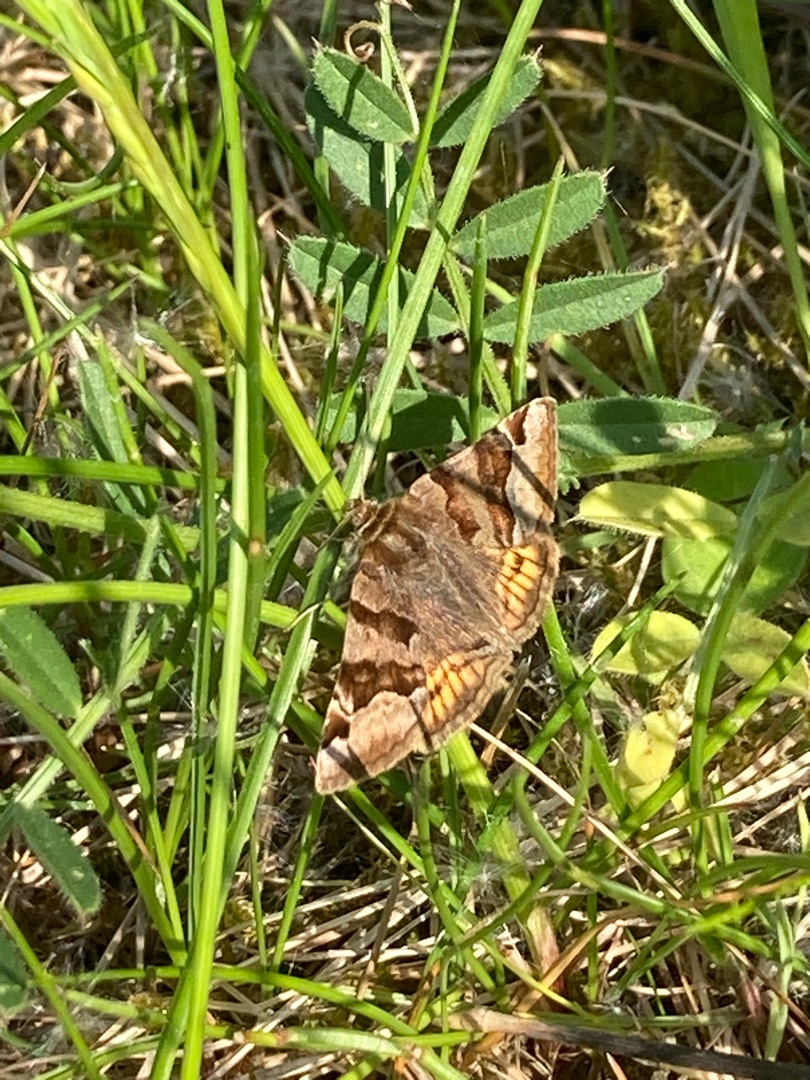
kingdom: Animalia
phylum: Arthropoda
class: Insecta
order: Lepidoptera
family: Erebidae
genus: Euclidia
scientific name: Euclidia glyphica
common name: Brun kløverugle
